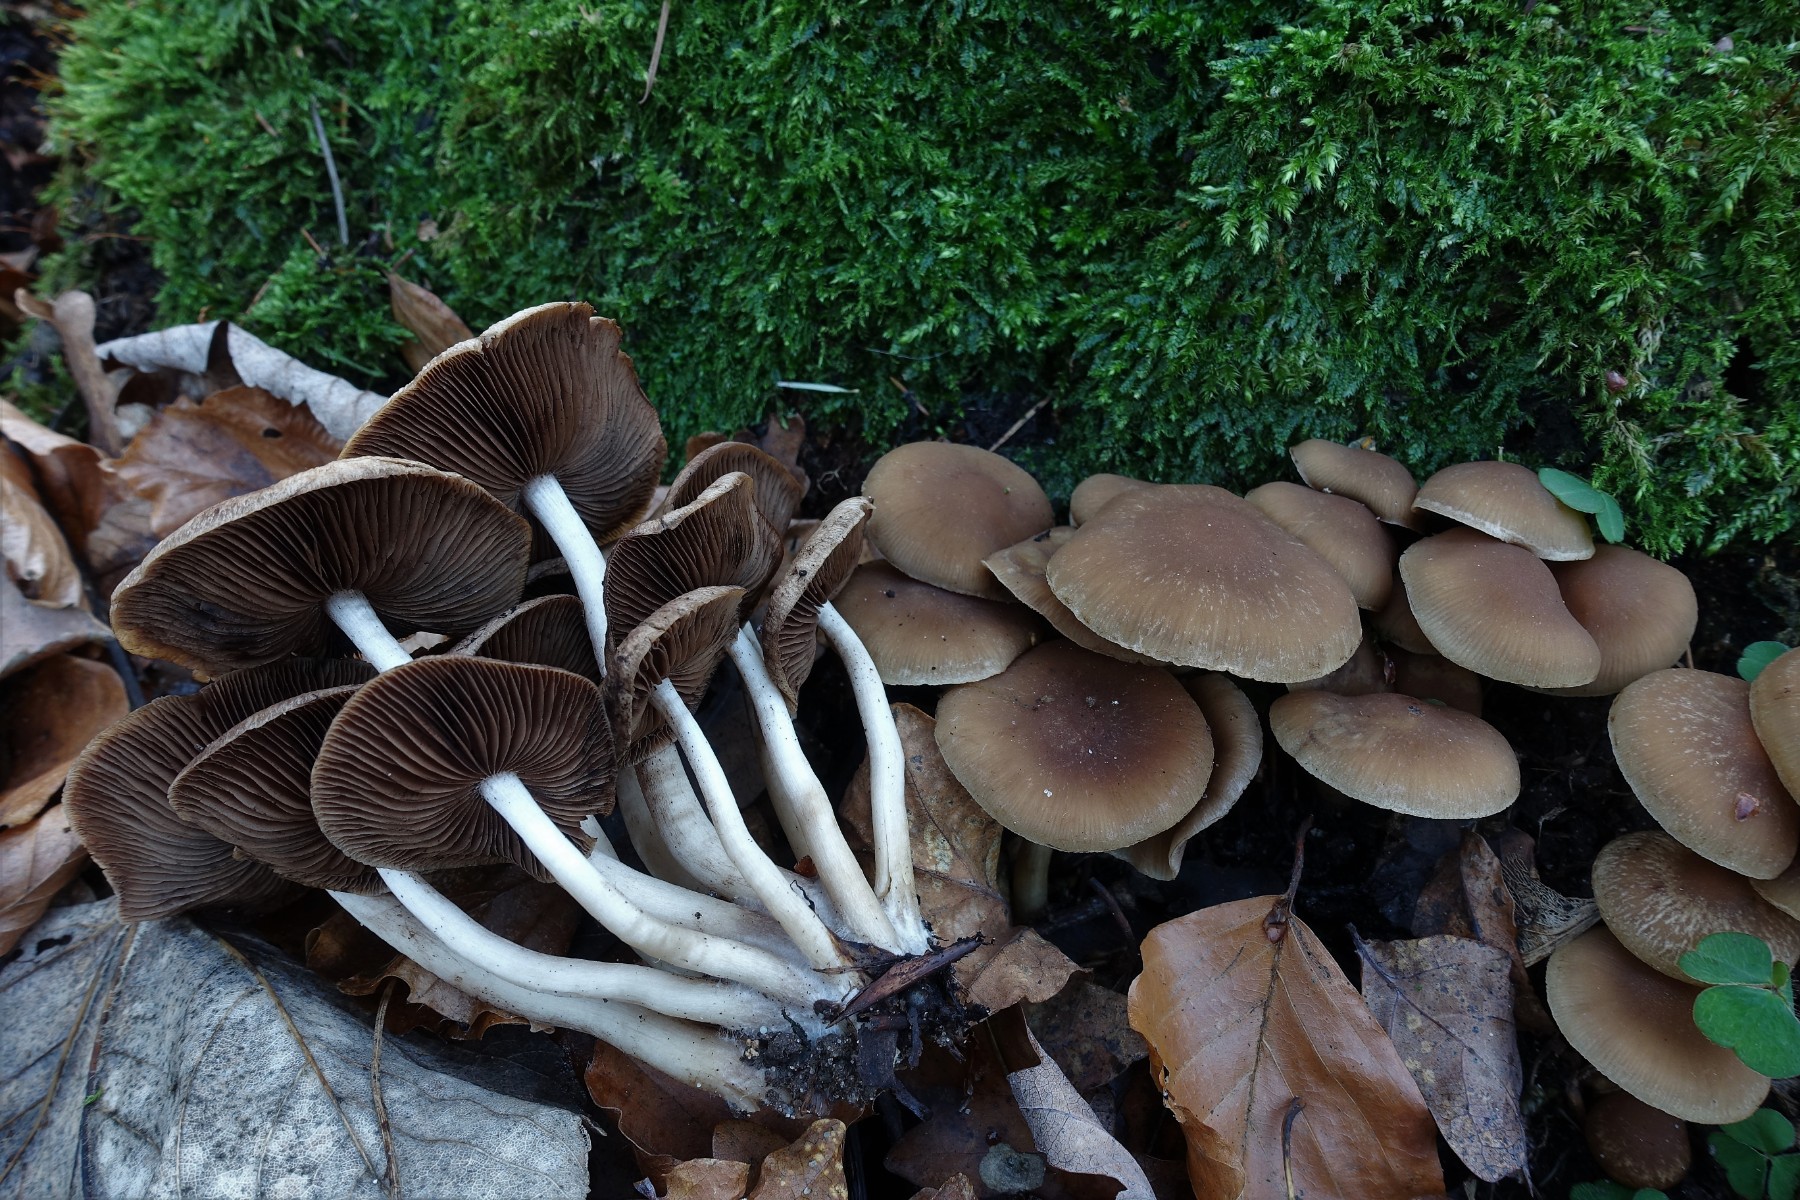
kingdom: Fungi
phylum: Basidiomycota
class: Agaricomycetes
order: Agaricales
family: Psathyrellaceae
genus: Psathyrella
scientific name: Psathyrella piluliformis
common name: lysstokket mørkhat
